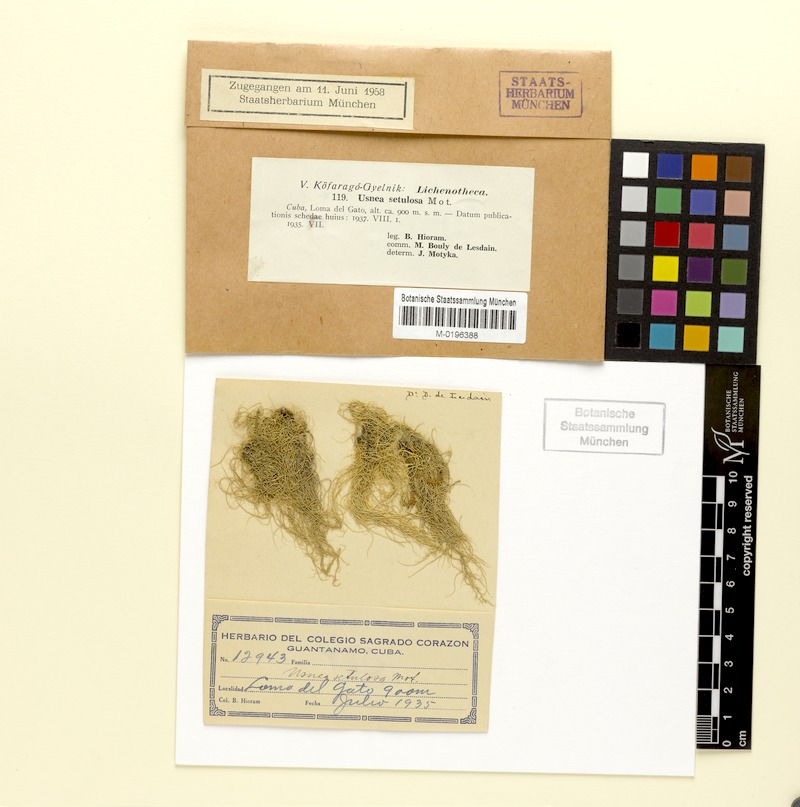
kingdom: Fungi
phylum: Ascomycota
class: Lecanoromycetes
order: Lecanorales
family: Parmeliaceae
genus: Usnea
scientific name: Usnea setulosa
